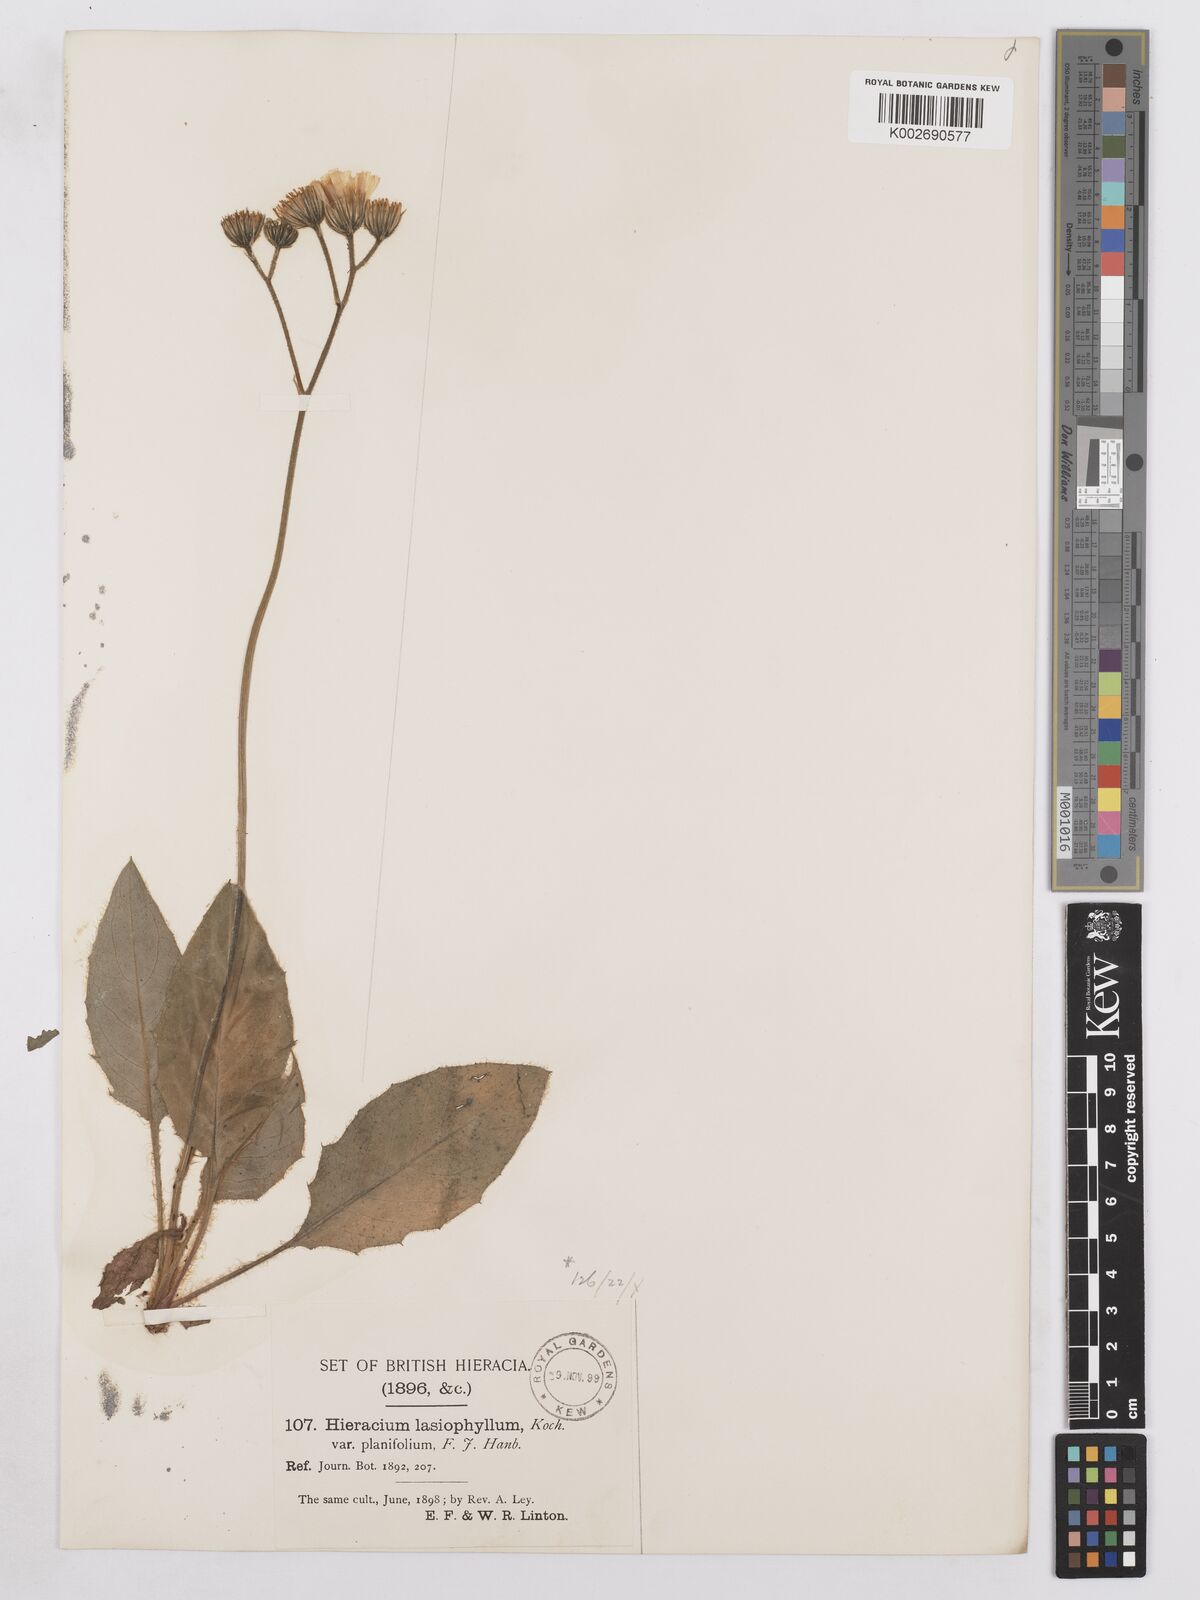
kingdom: Plantae
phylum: Tracheophyta
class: Magnoliopsida
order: Asterales
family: Asteraceae
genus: Hieracium
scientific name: Hieracium subplanifolium
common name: Flat-leaved hawkweed
